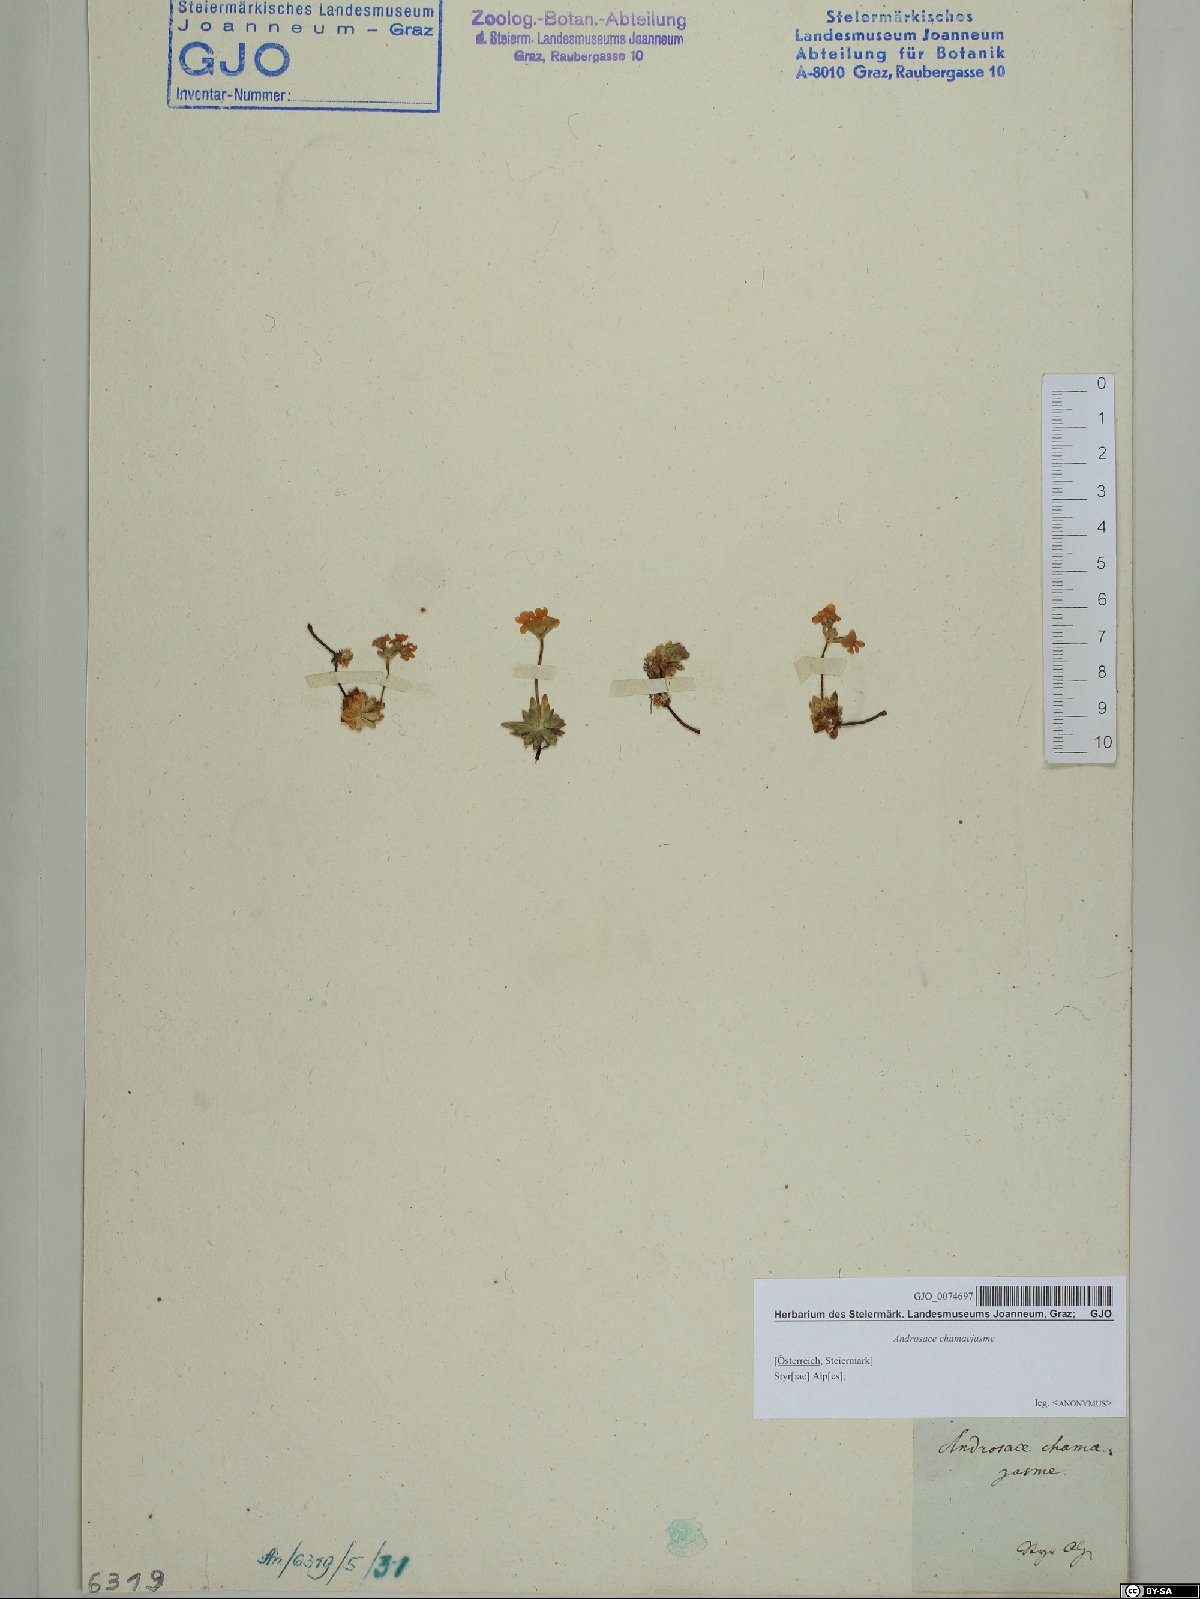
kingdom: Plantae
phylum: Tracheophyta
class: Magnoliopsida
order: Ericales
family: Primulaceae
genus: Androsace
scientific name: Androsace chamaejasme
